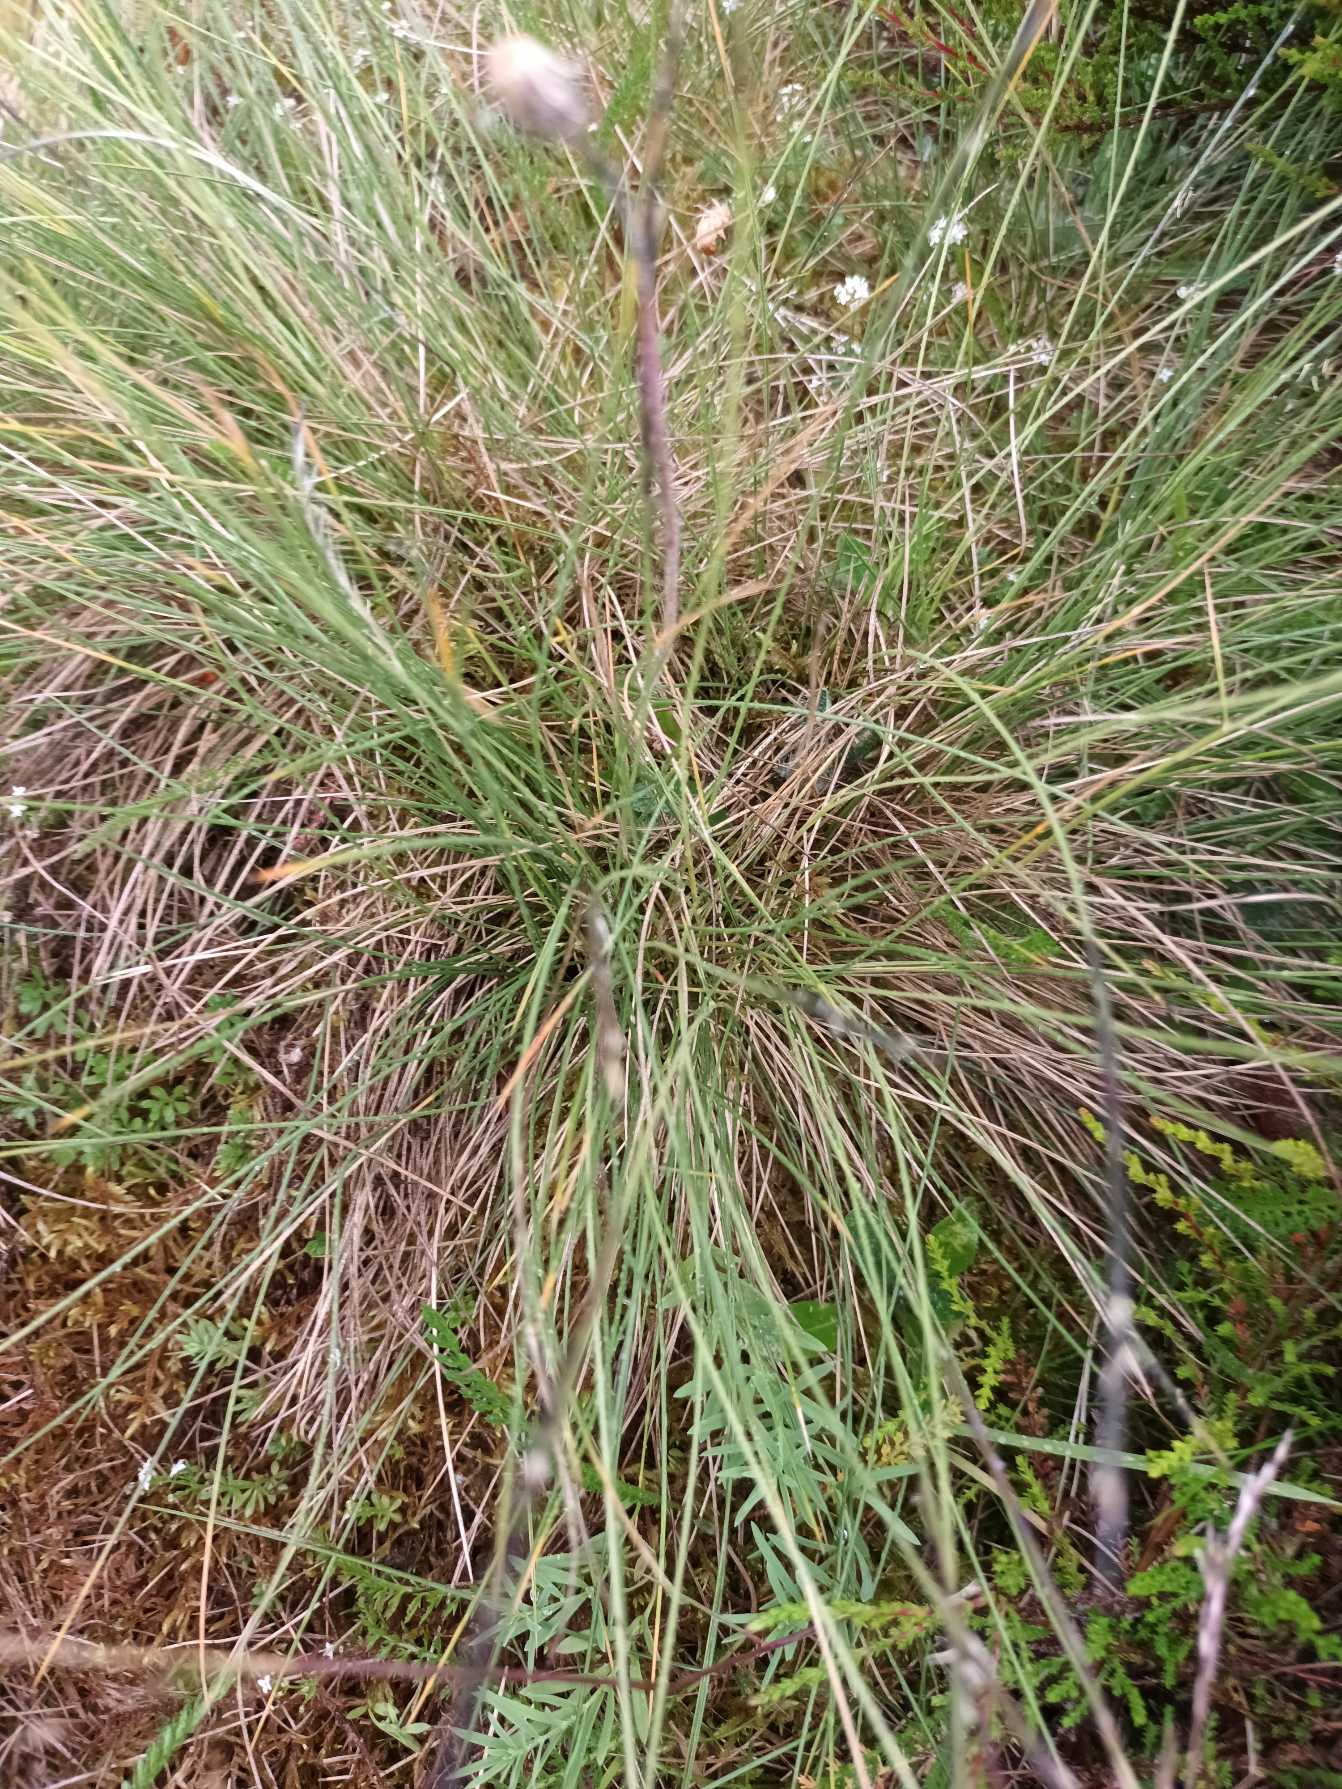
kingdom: Plantae
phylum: Tracheophyta
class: Liliopsida
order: Poales
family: Poaceae
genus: Nardus
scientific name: Nardus stricta
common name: Katteskæg
